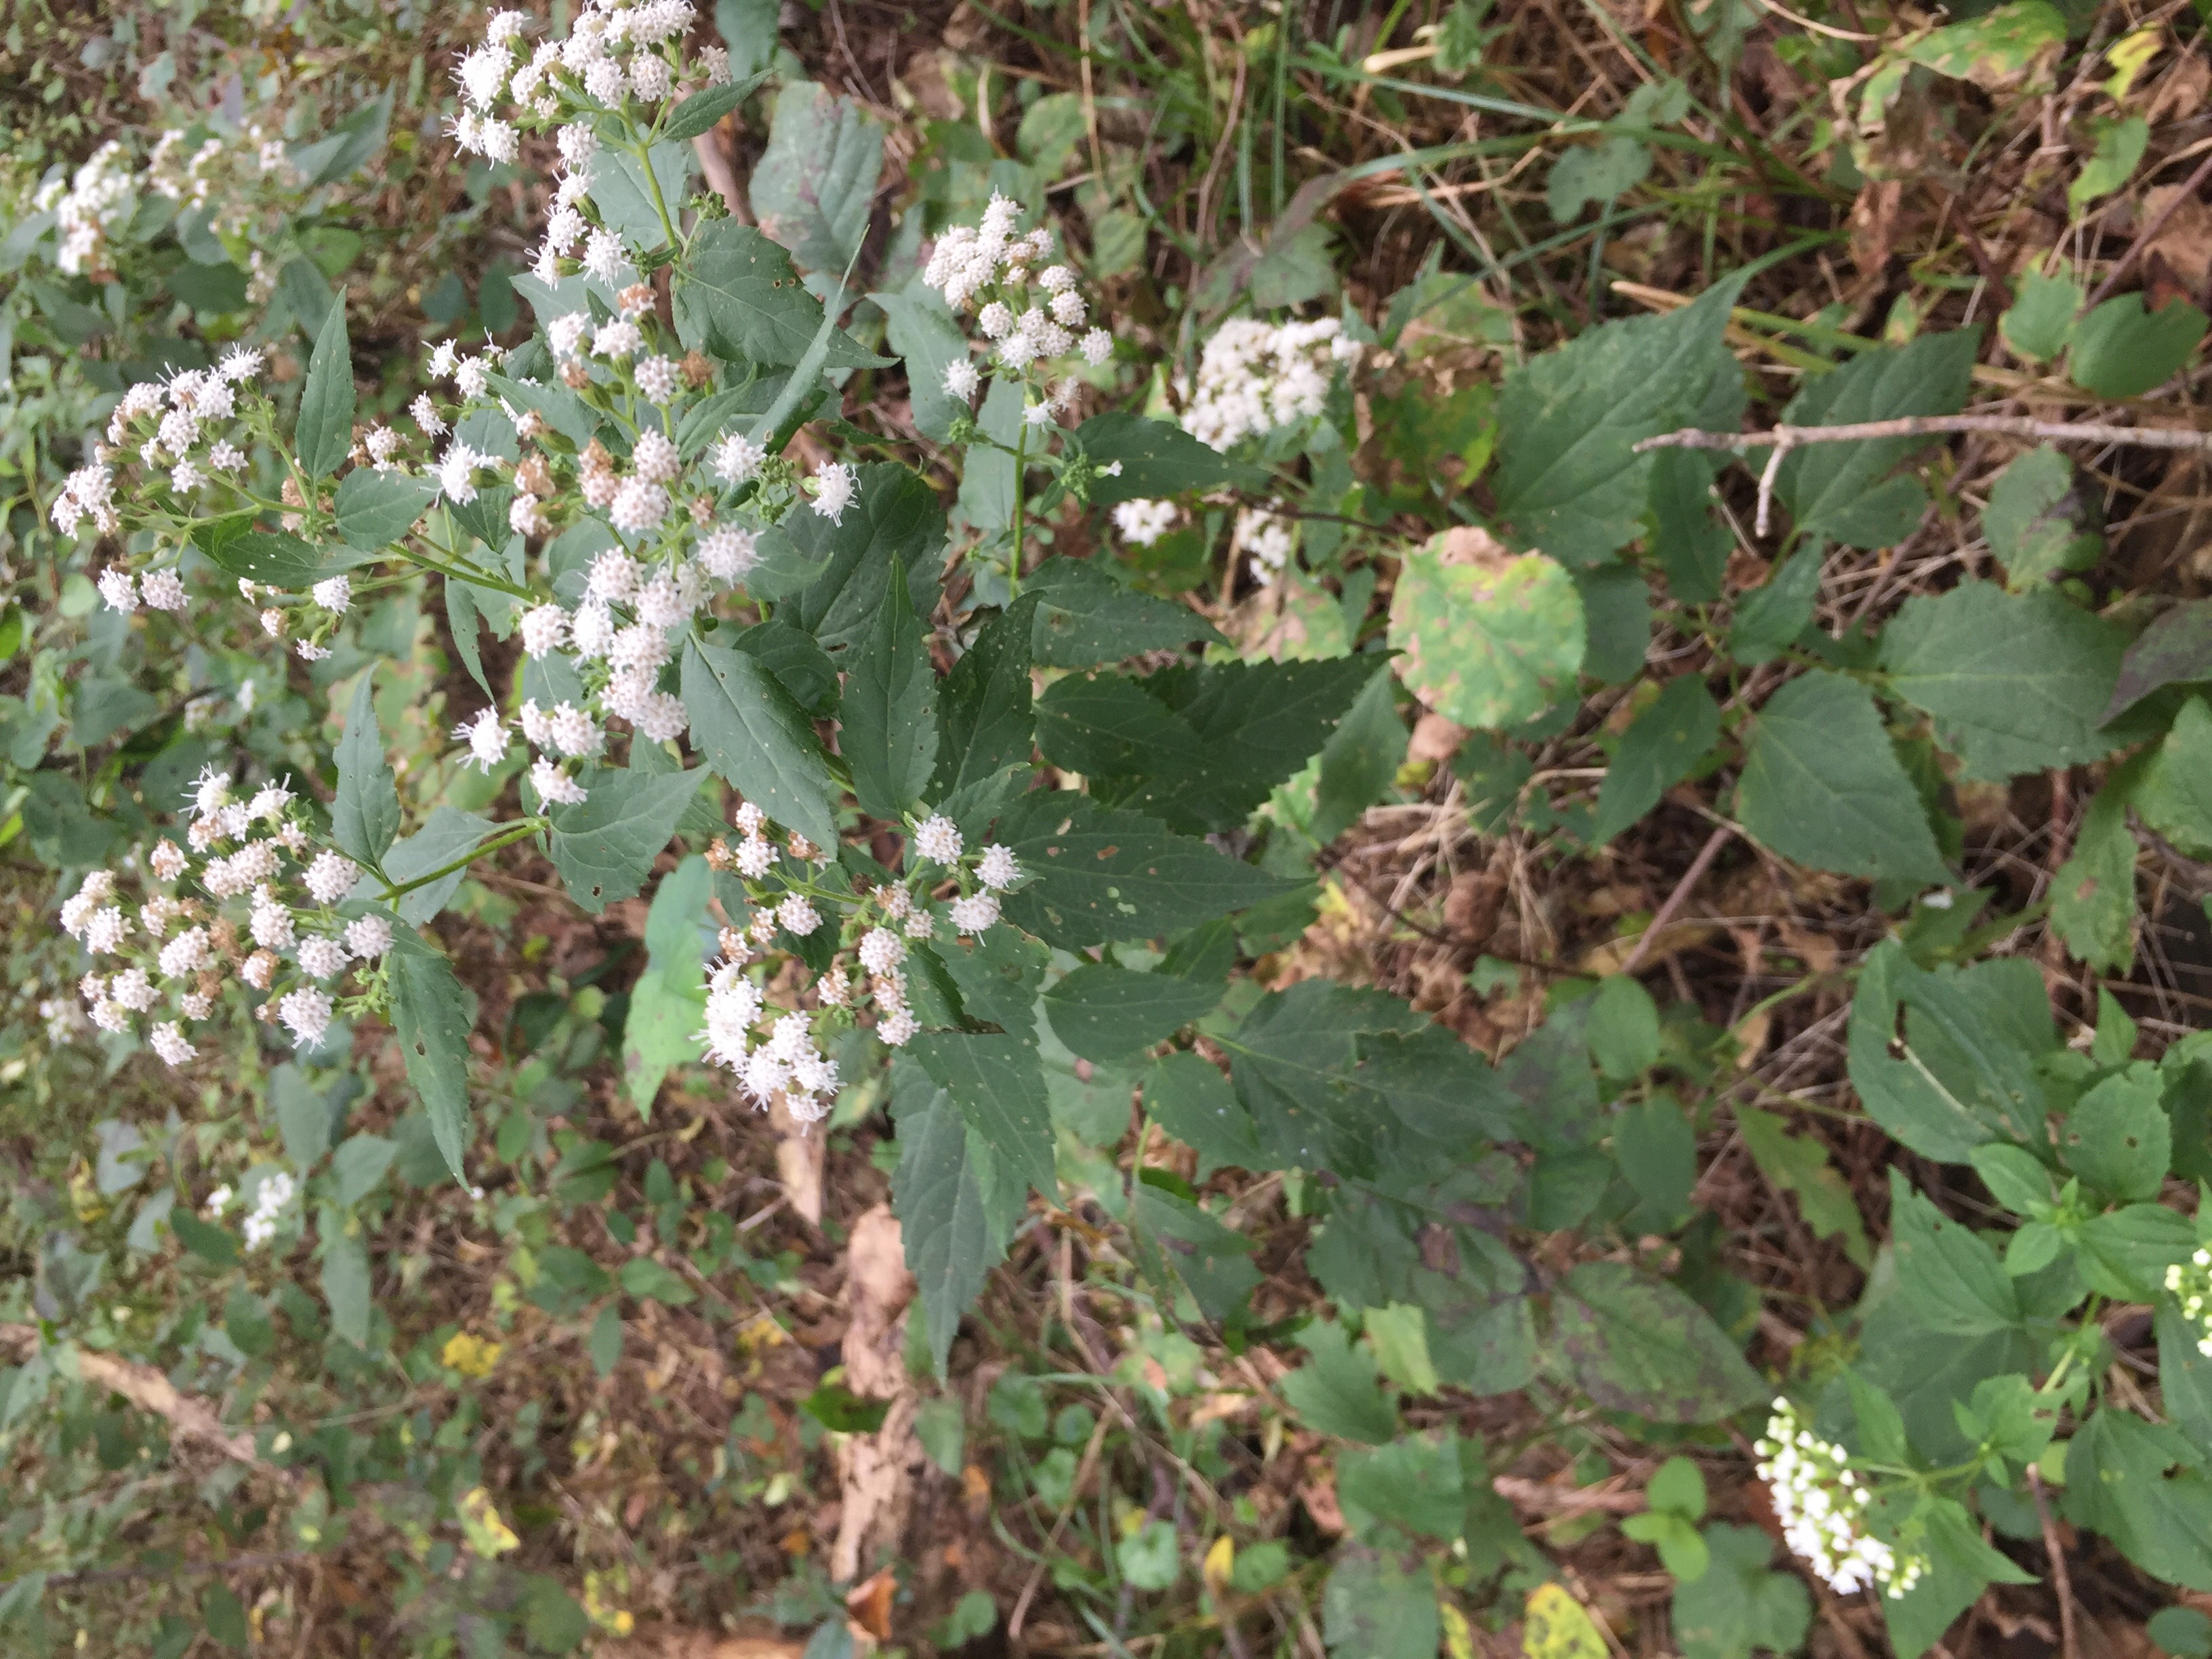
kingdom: Plantae
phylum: Tracheophyta
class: Magnoliopsida
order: Asterales
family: Asteraceae
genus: Ageratina
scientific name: Ageratina altissima
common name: White Snakeroot
